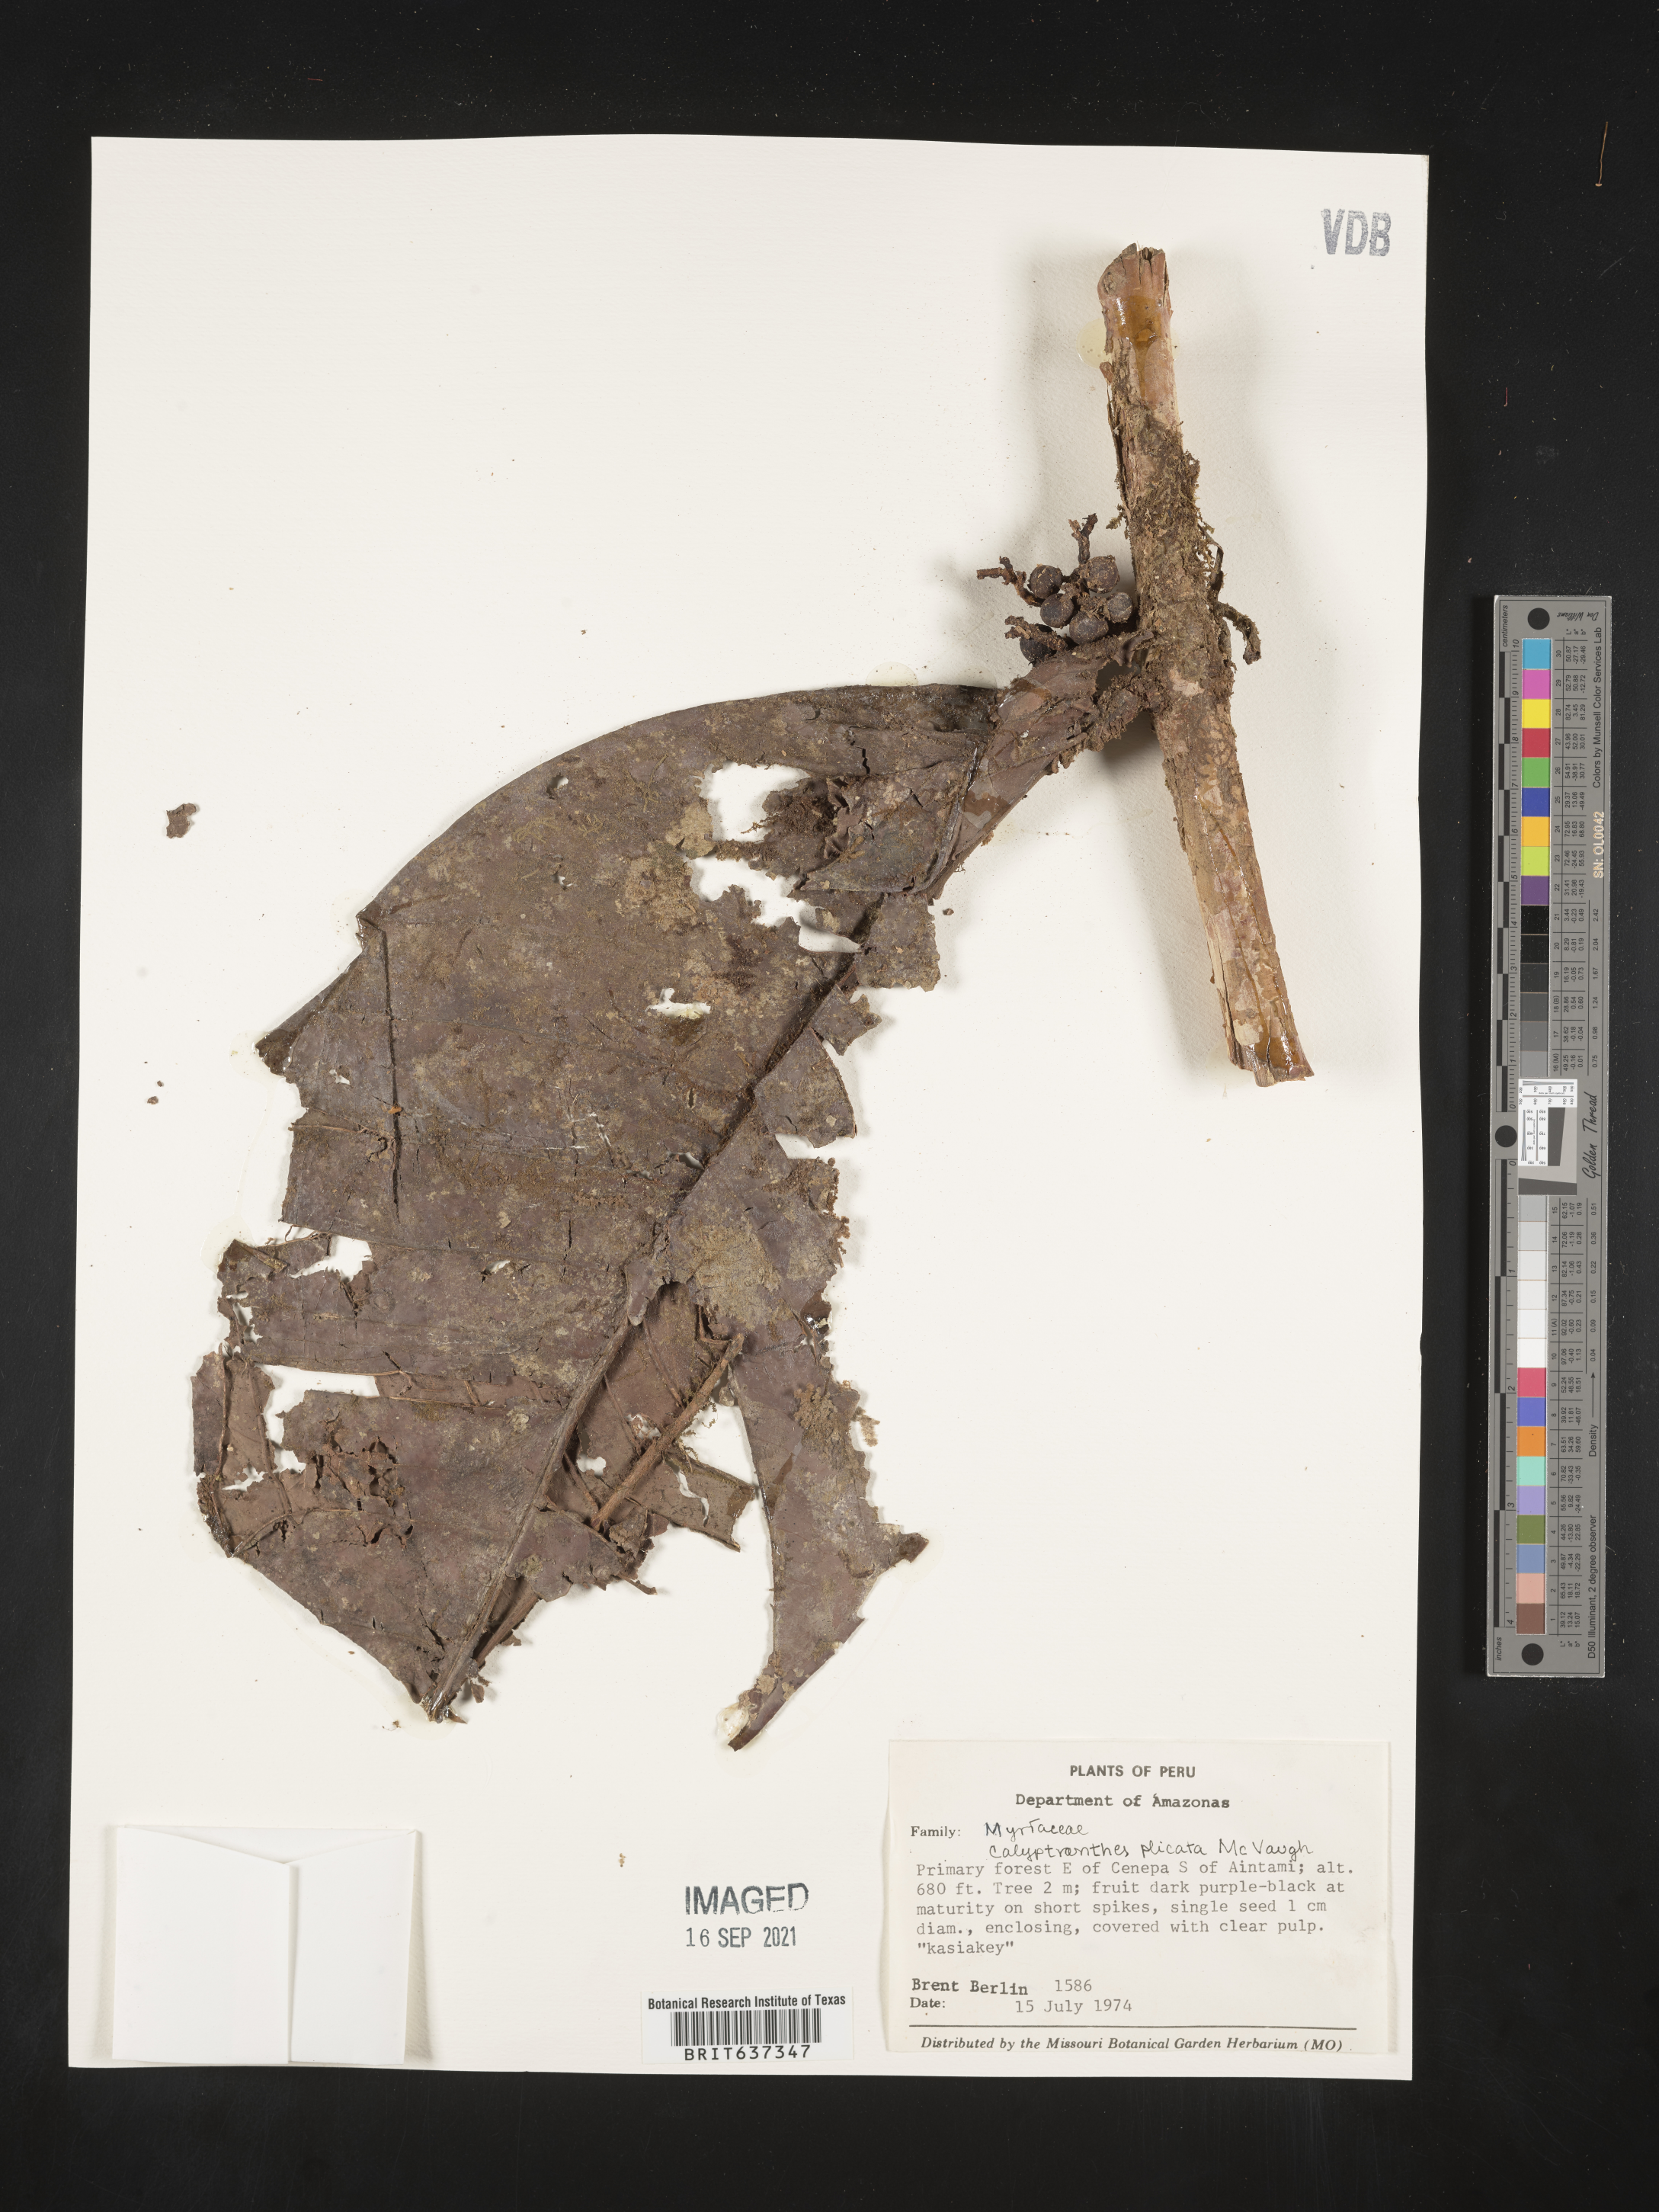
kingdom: Plantae
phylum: Tracheophyta
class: Magnoliopsida
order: Myrtales
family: Myrtaceae
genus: Calyptranthes
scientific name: Calyptranthes
